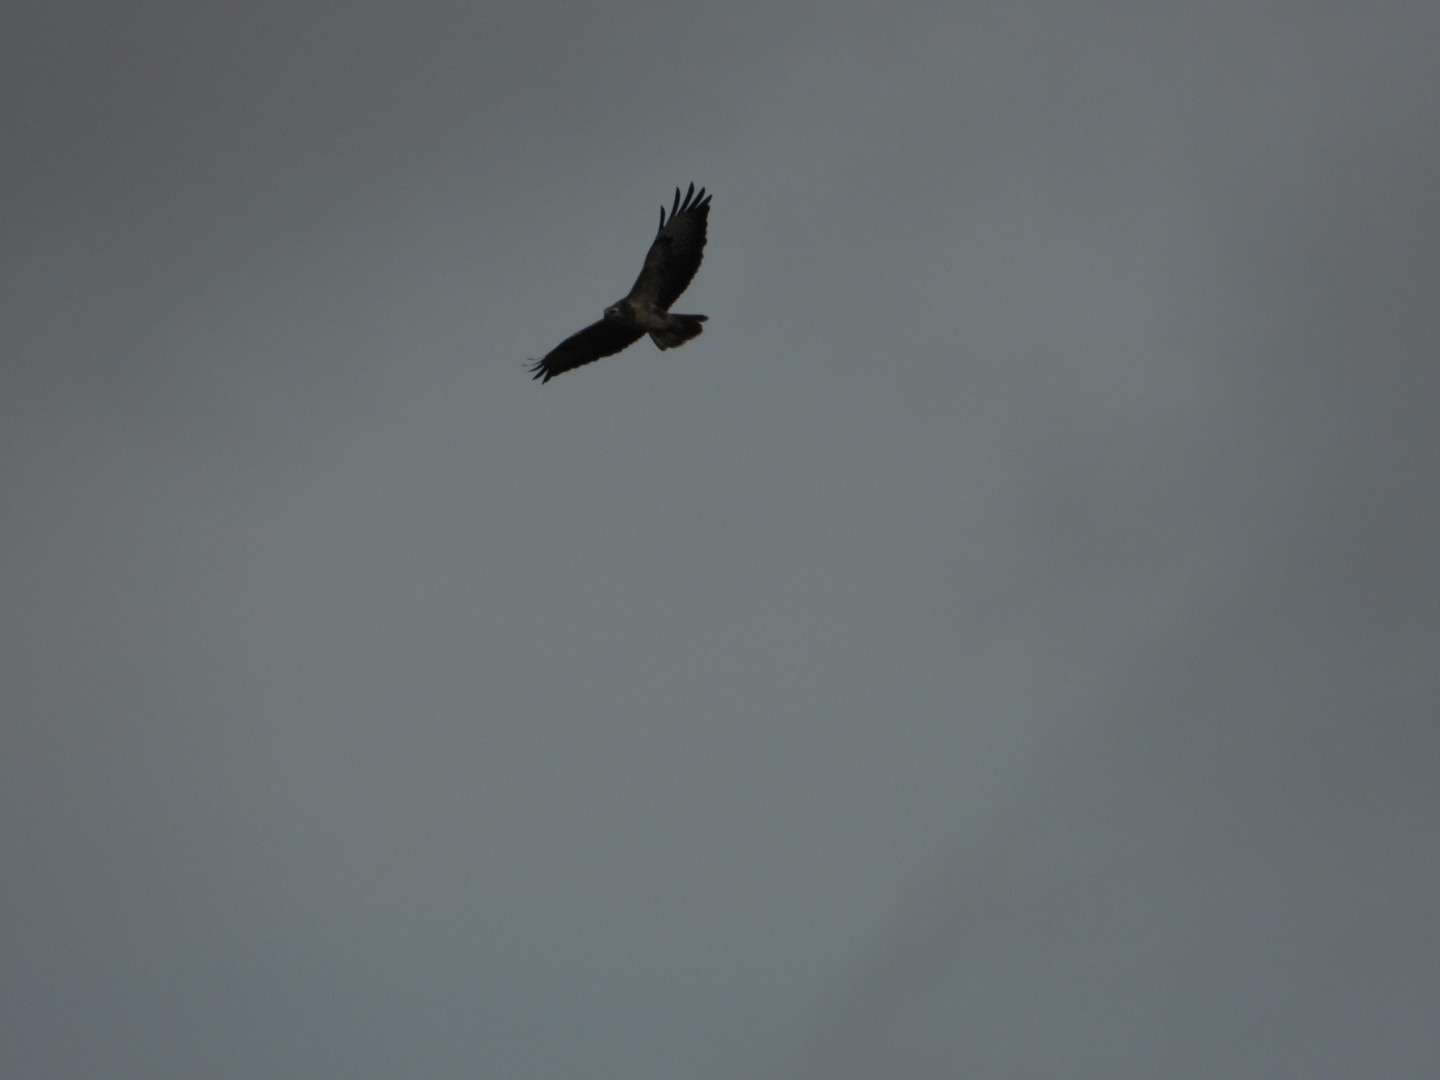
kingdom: Animalia
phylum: Chordata
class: Aves
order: Accipitriformes
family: Accipitridae
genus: Buteo
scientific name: Buteo buteo
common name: Musvåge
